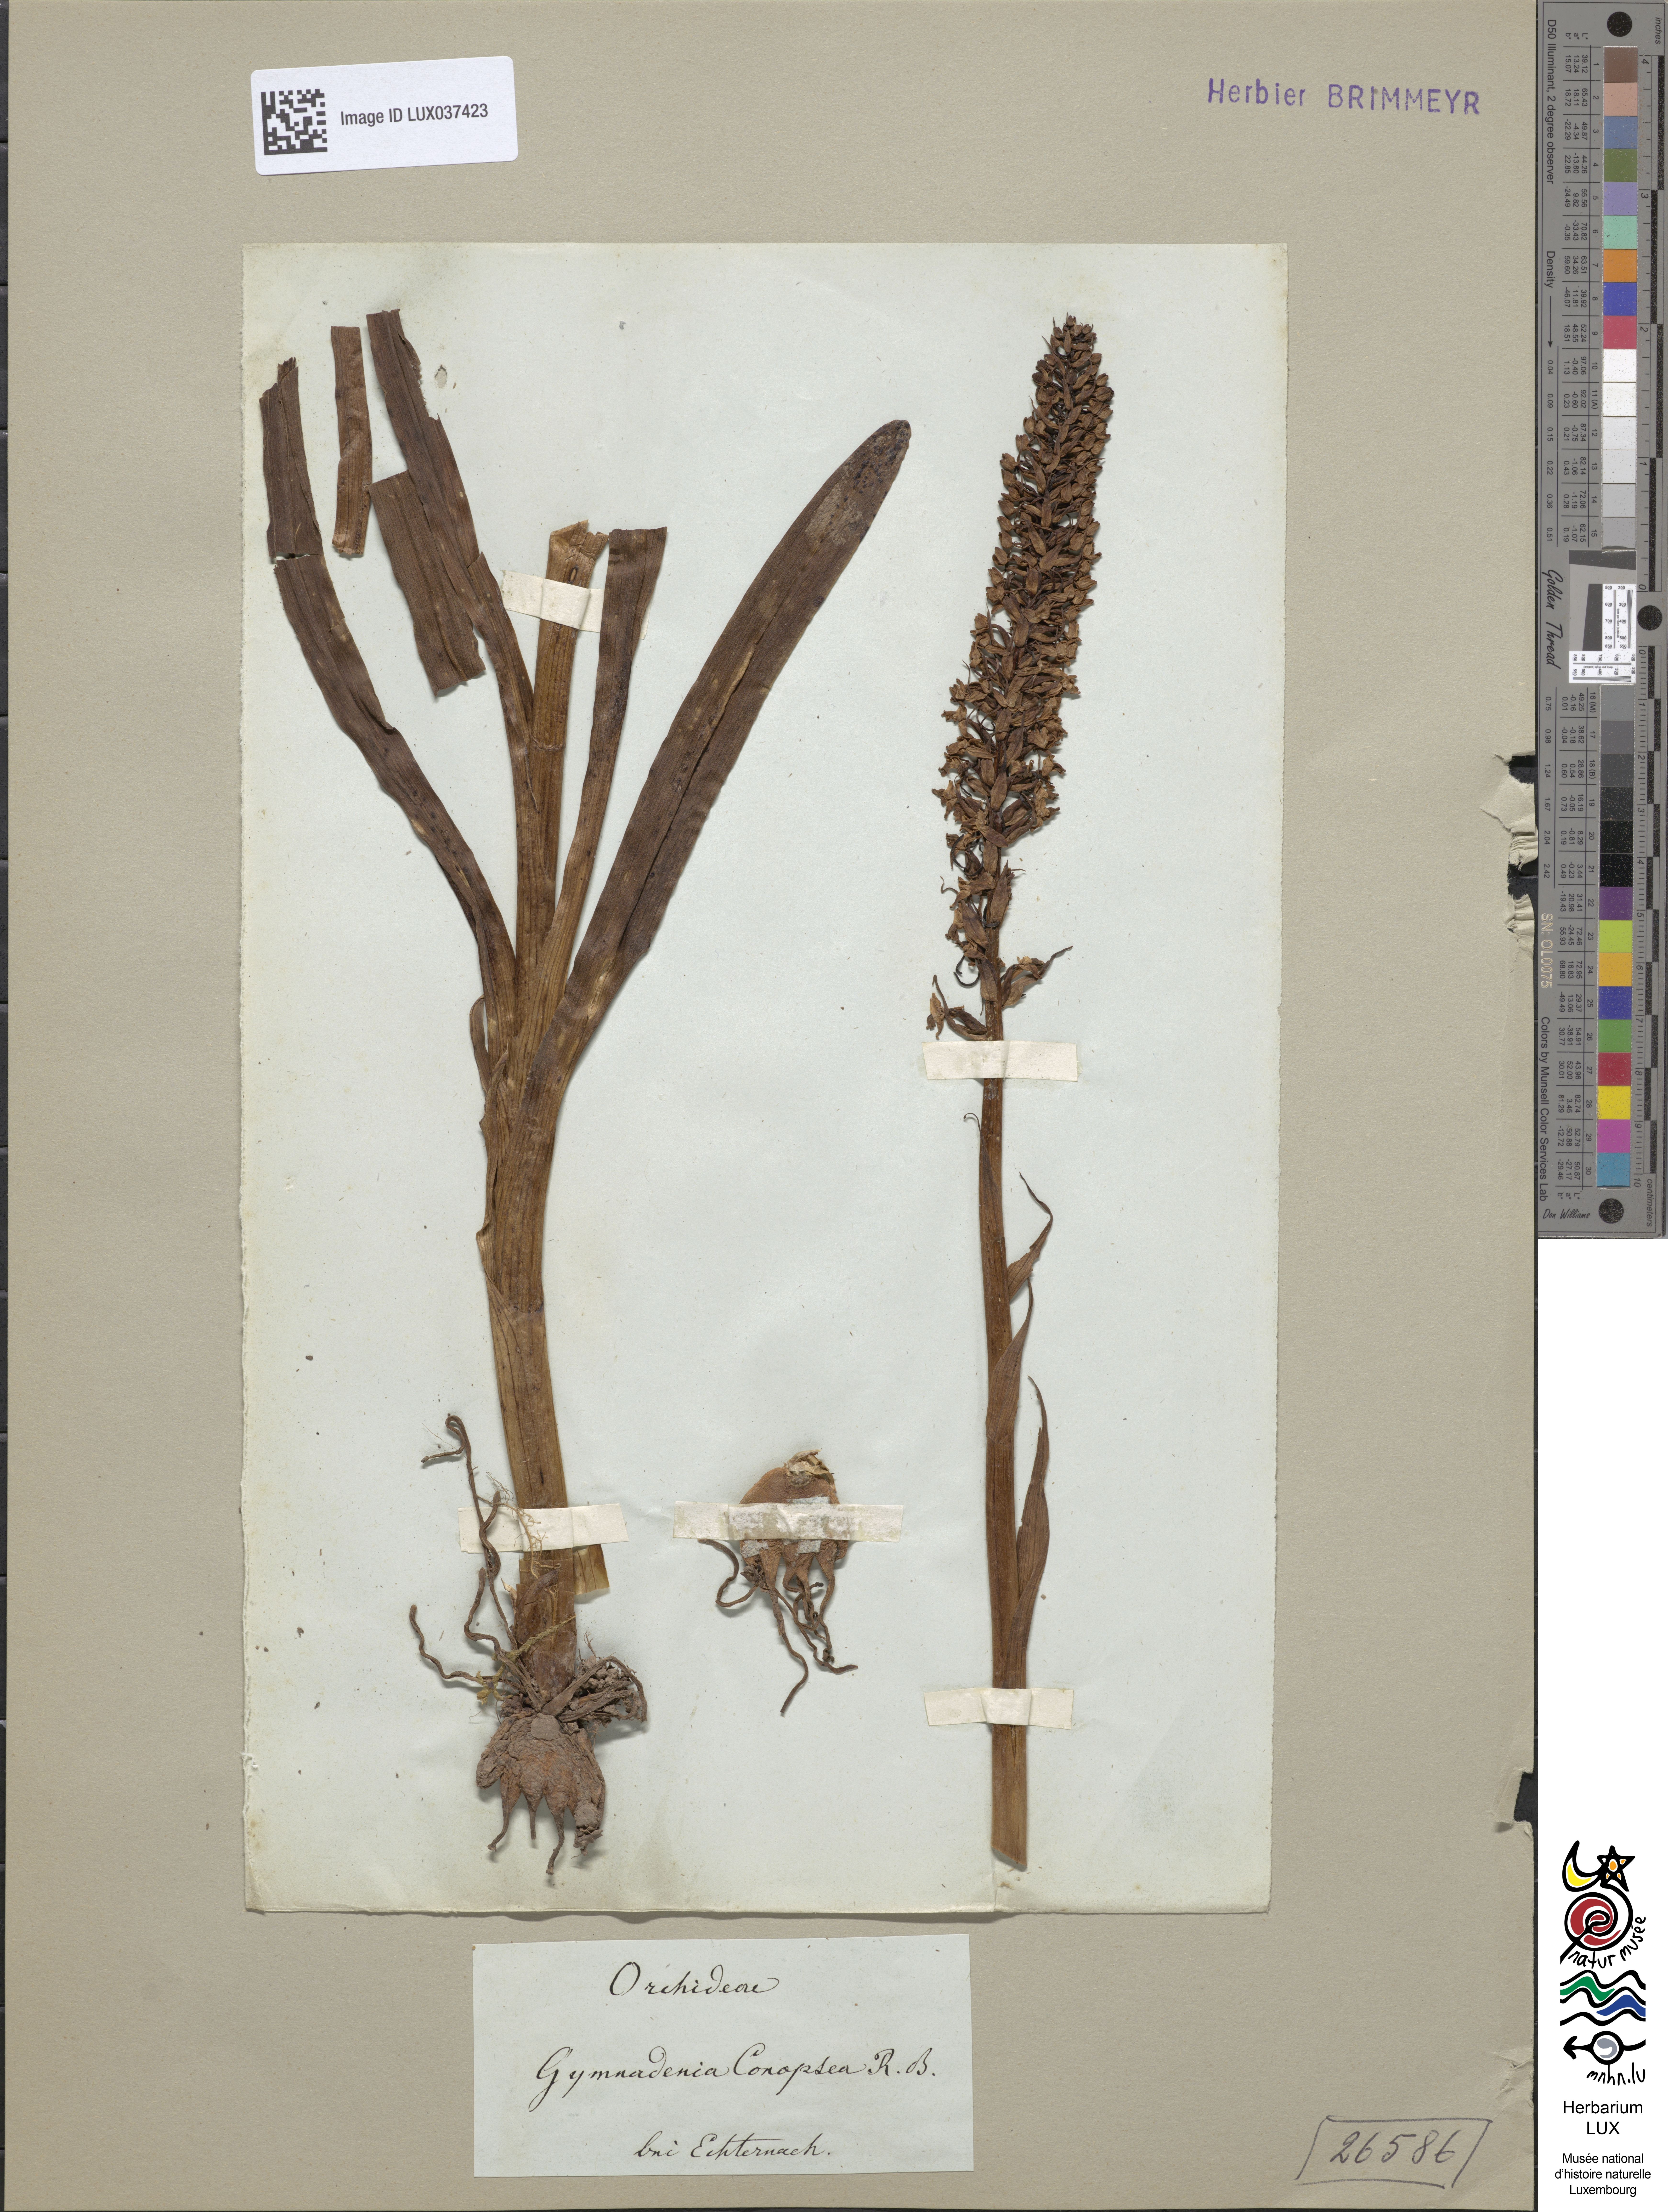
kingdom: Plantae
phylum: Tracheophyta
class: Liliopsida
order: Asparagales
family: Orchidaceae
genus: Gymnadenia
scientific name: Gymnadenia conopsea
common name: Fragrant orchid
